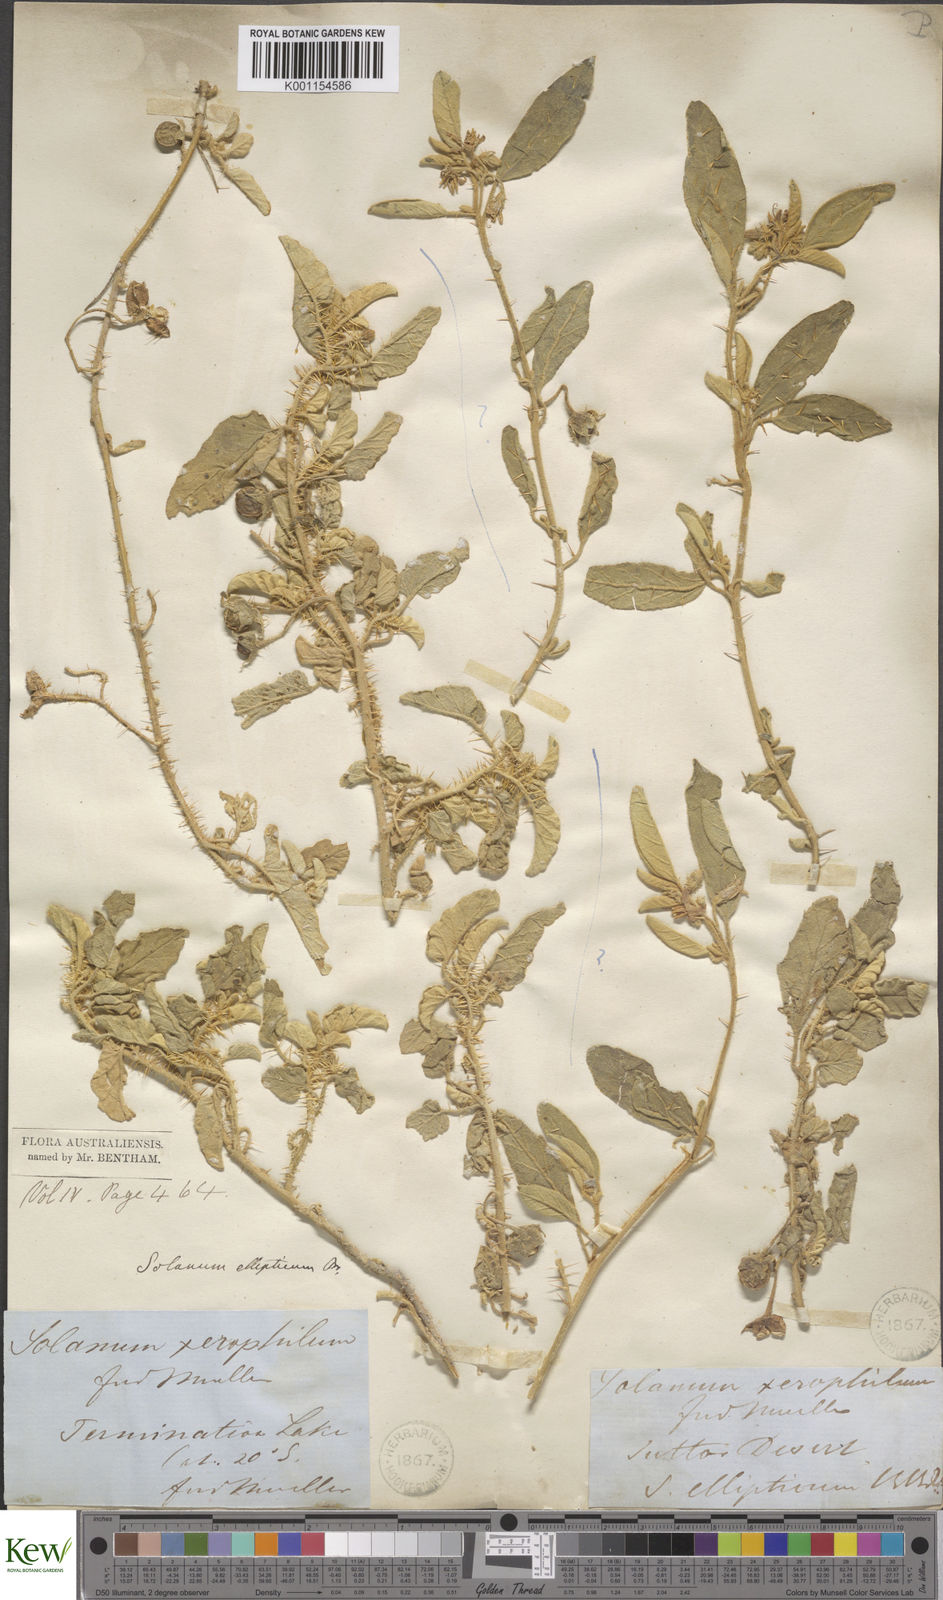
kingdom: Plantae
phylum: Tracheophyta
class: Magnoliopsida
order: Solanales
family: Solanaceae
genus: Solanum
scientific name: Solanum ellipticum
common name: Potato-bush
